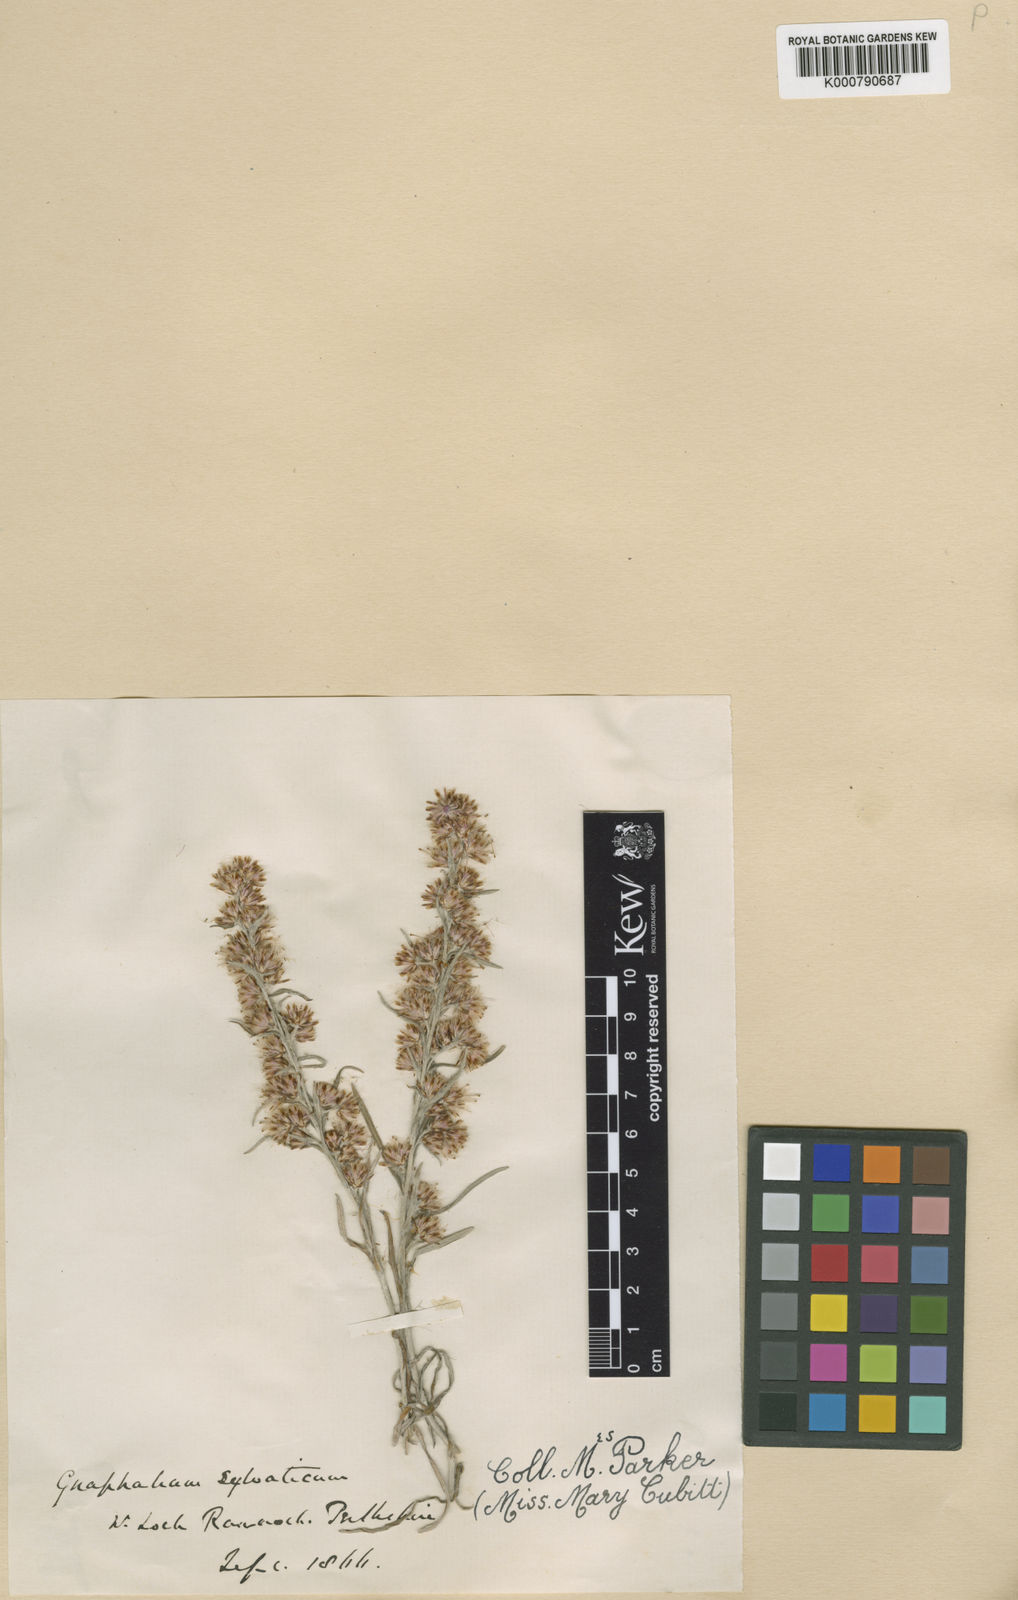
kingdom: Plantae
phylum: Tracheophyta
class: Magnoliopsida
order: Asterales
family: Asteraceae
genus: Omalotheca
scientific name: Omalotheca sylvatica
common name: Heath cudweed
